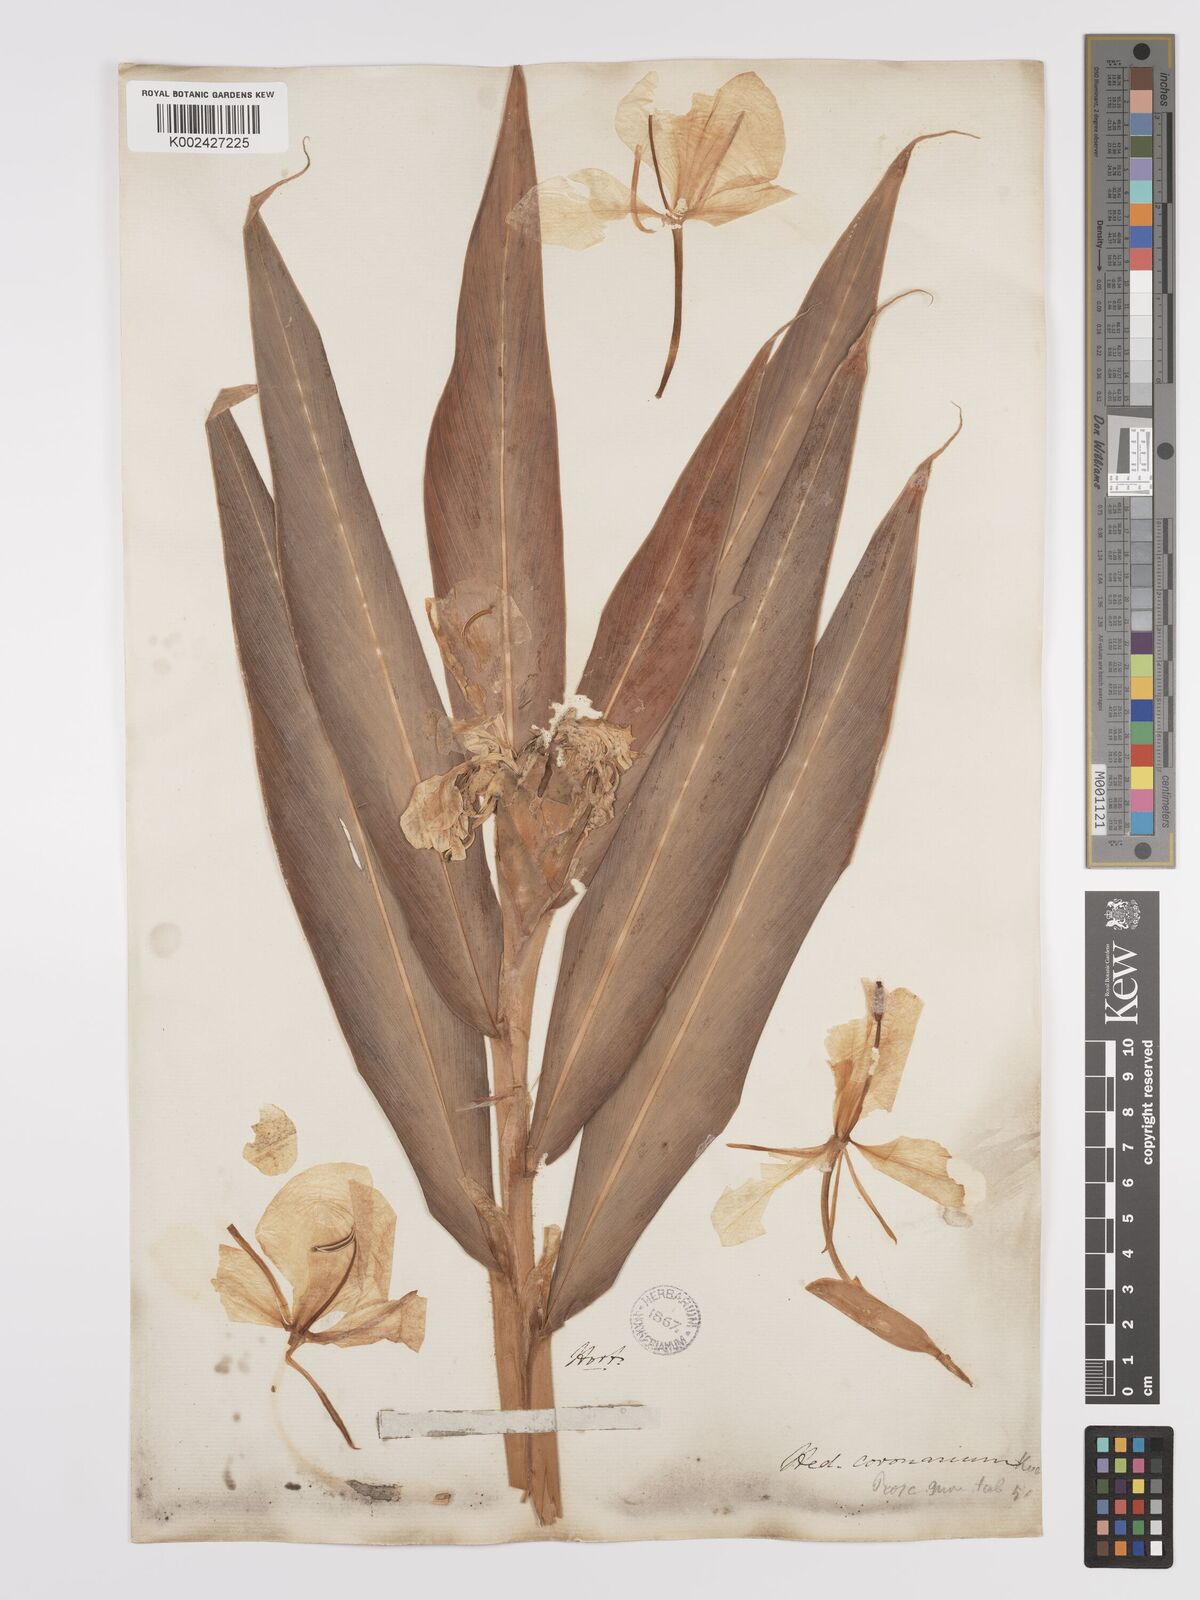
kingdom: Plantae
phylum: Tracheophyta
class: Liliopsida
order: Zingiberales
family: Zingiberaceae
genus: Hedychium
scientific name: Hedychium coronarium
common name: White garland-lily
